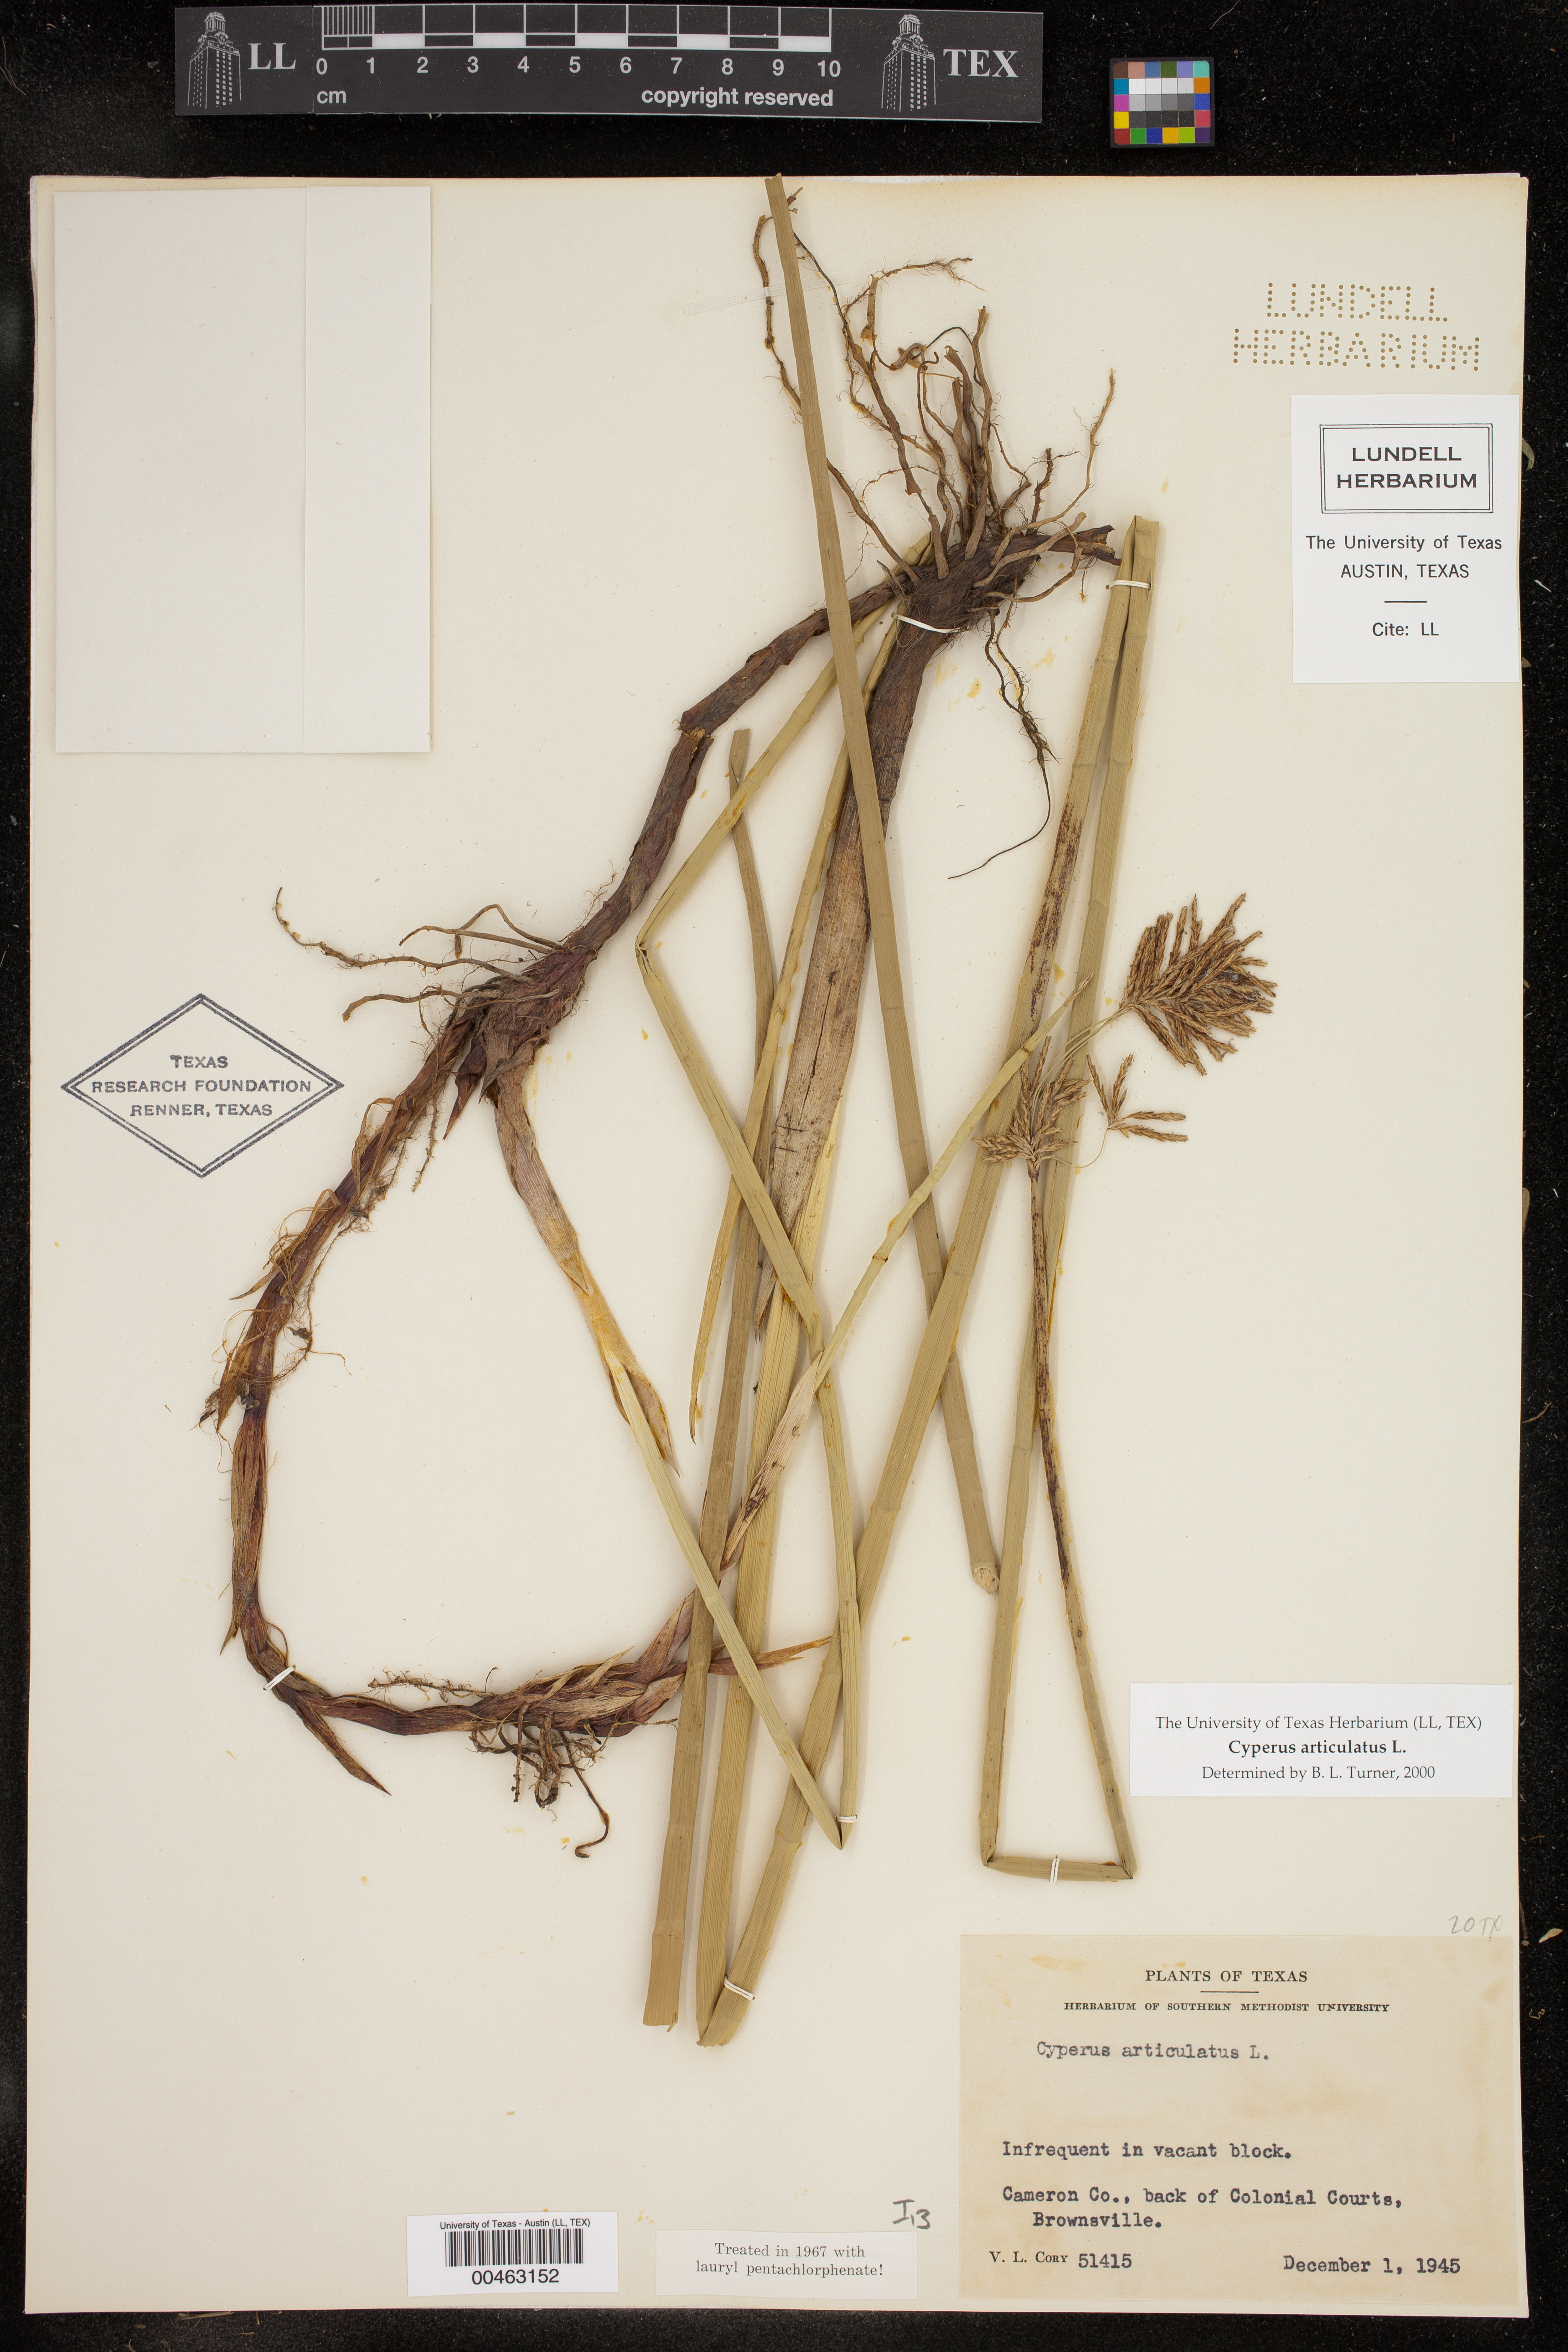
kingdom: Plantae
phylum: Tracheophyta
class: Liliopsida
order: Poales
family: Cyperaceae
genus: Cyperus
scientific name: Cyperus articulatus
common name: Jointed flatsedge
